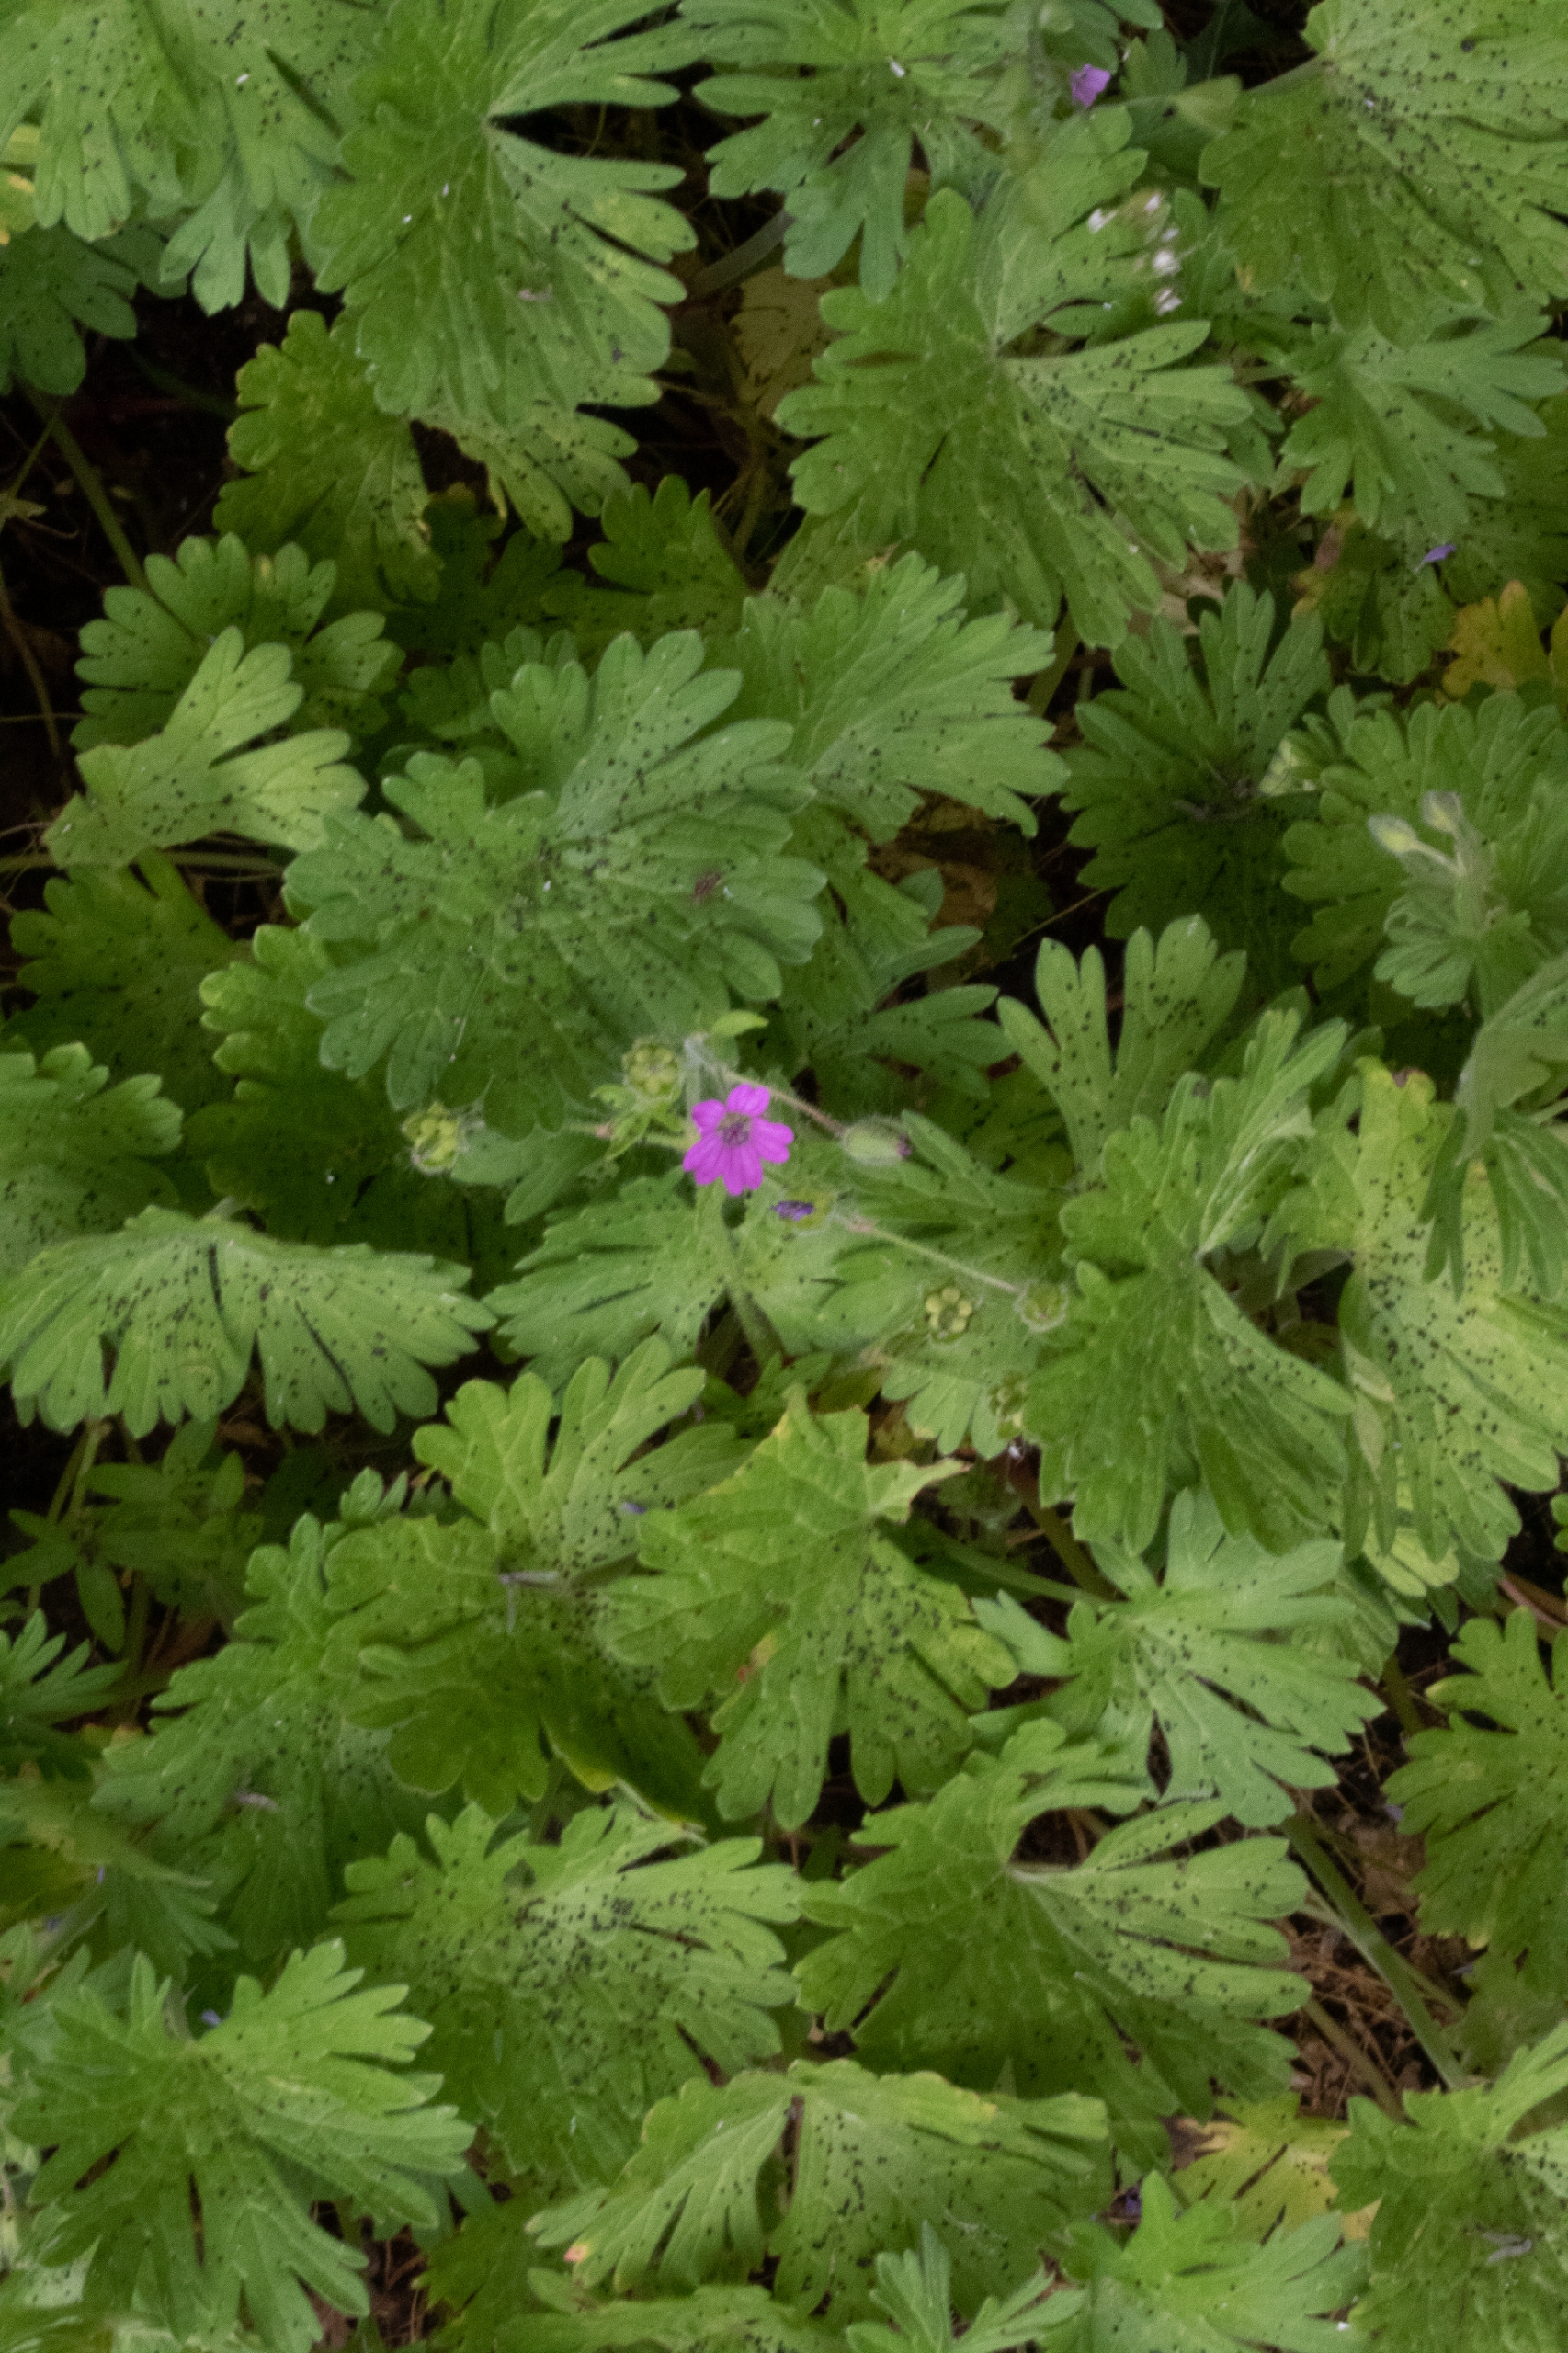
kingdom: Plantae
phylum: Tracheophyta
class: Magnoliopsida
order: Geraniales
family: Geraniaceae
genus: Geranium
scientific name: Geranium molle
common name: Blød storkenæb
